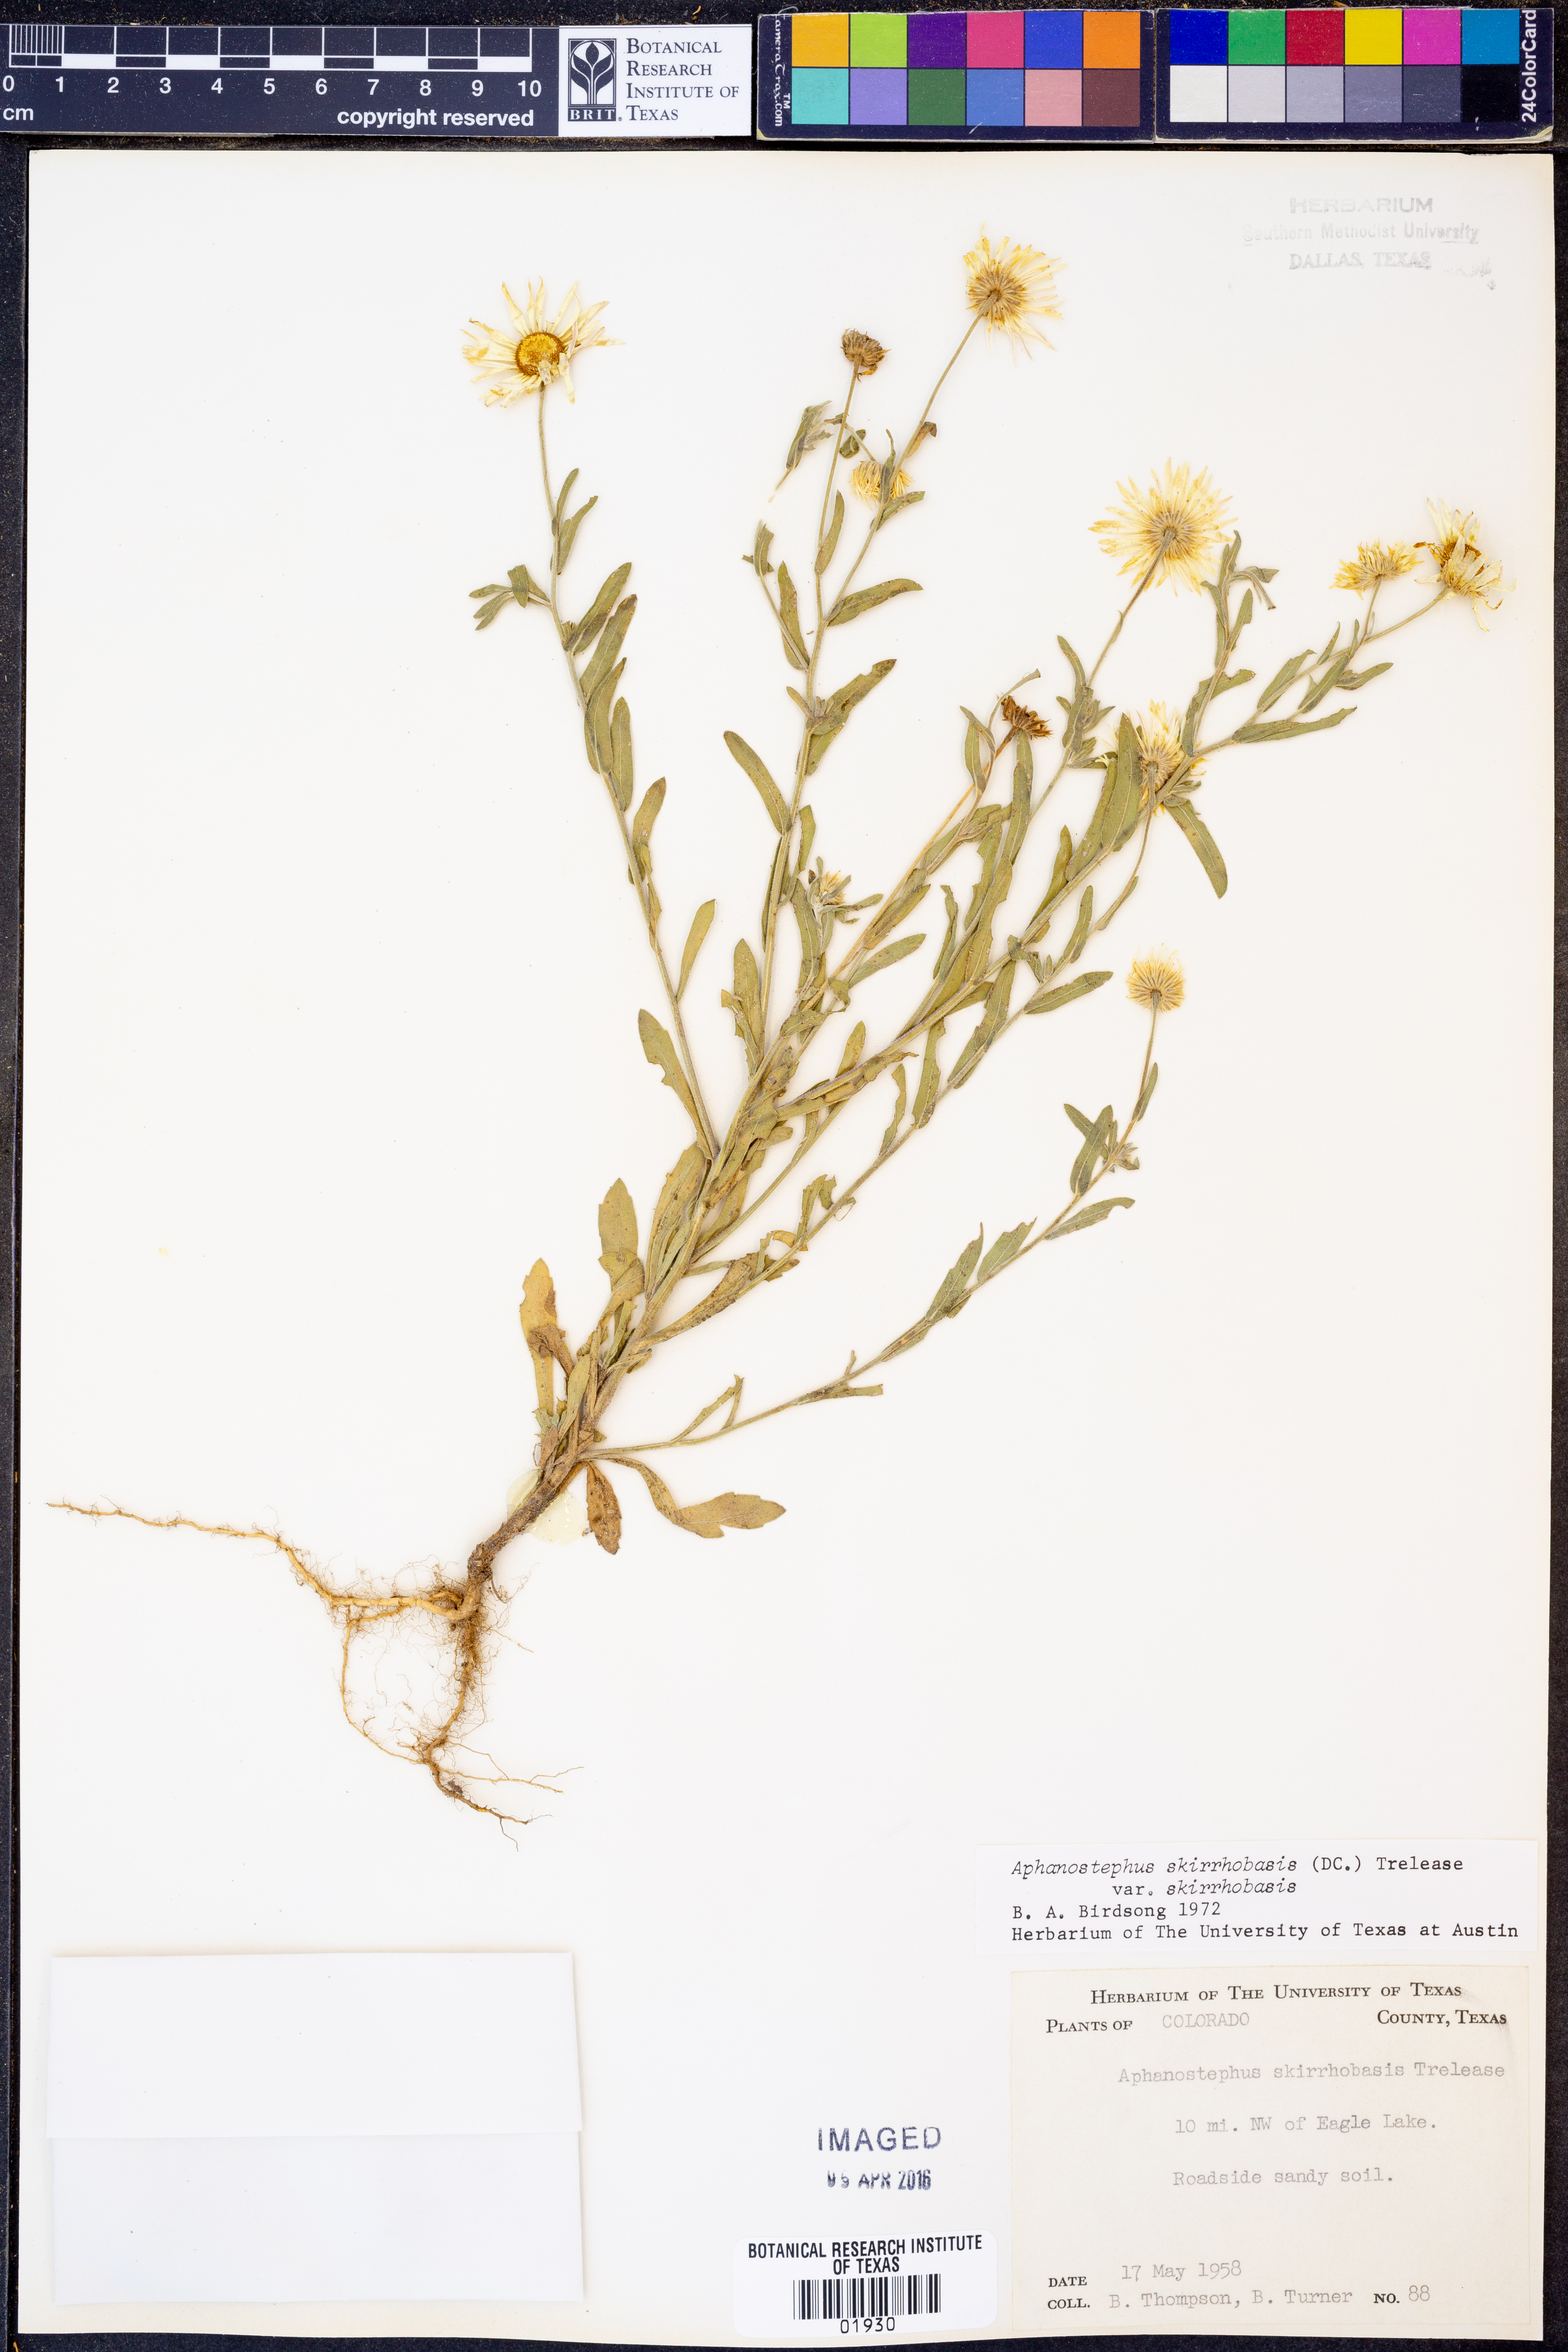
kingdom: Plantae
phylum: Tracheophyta
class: Magnoliopsida
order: Asterales
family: Asteraceae
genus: Aphanostephus
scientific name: Aphanostephus skirrhobasis
